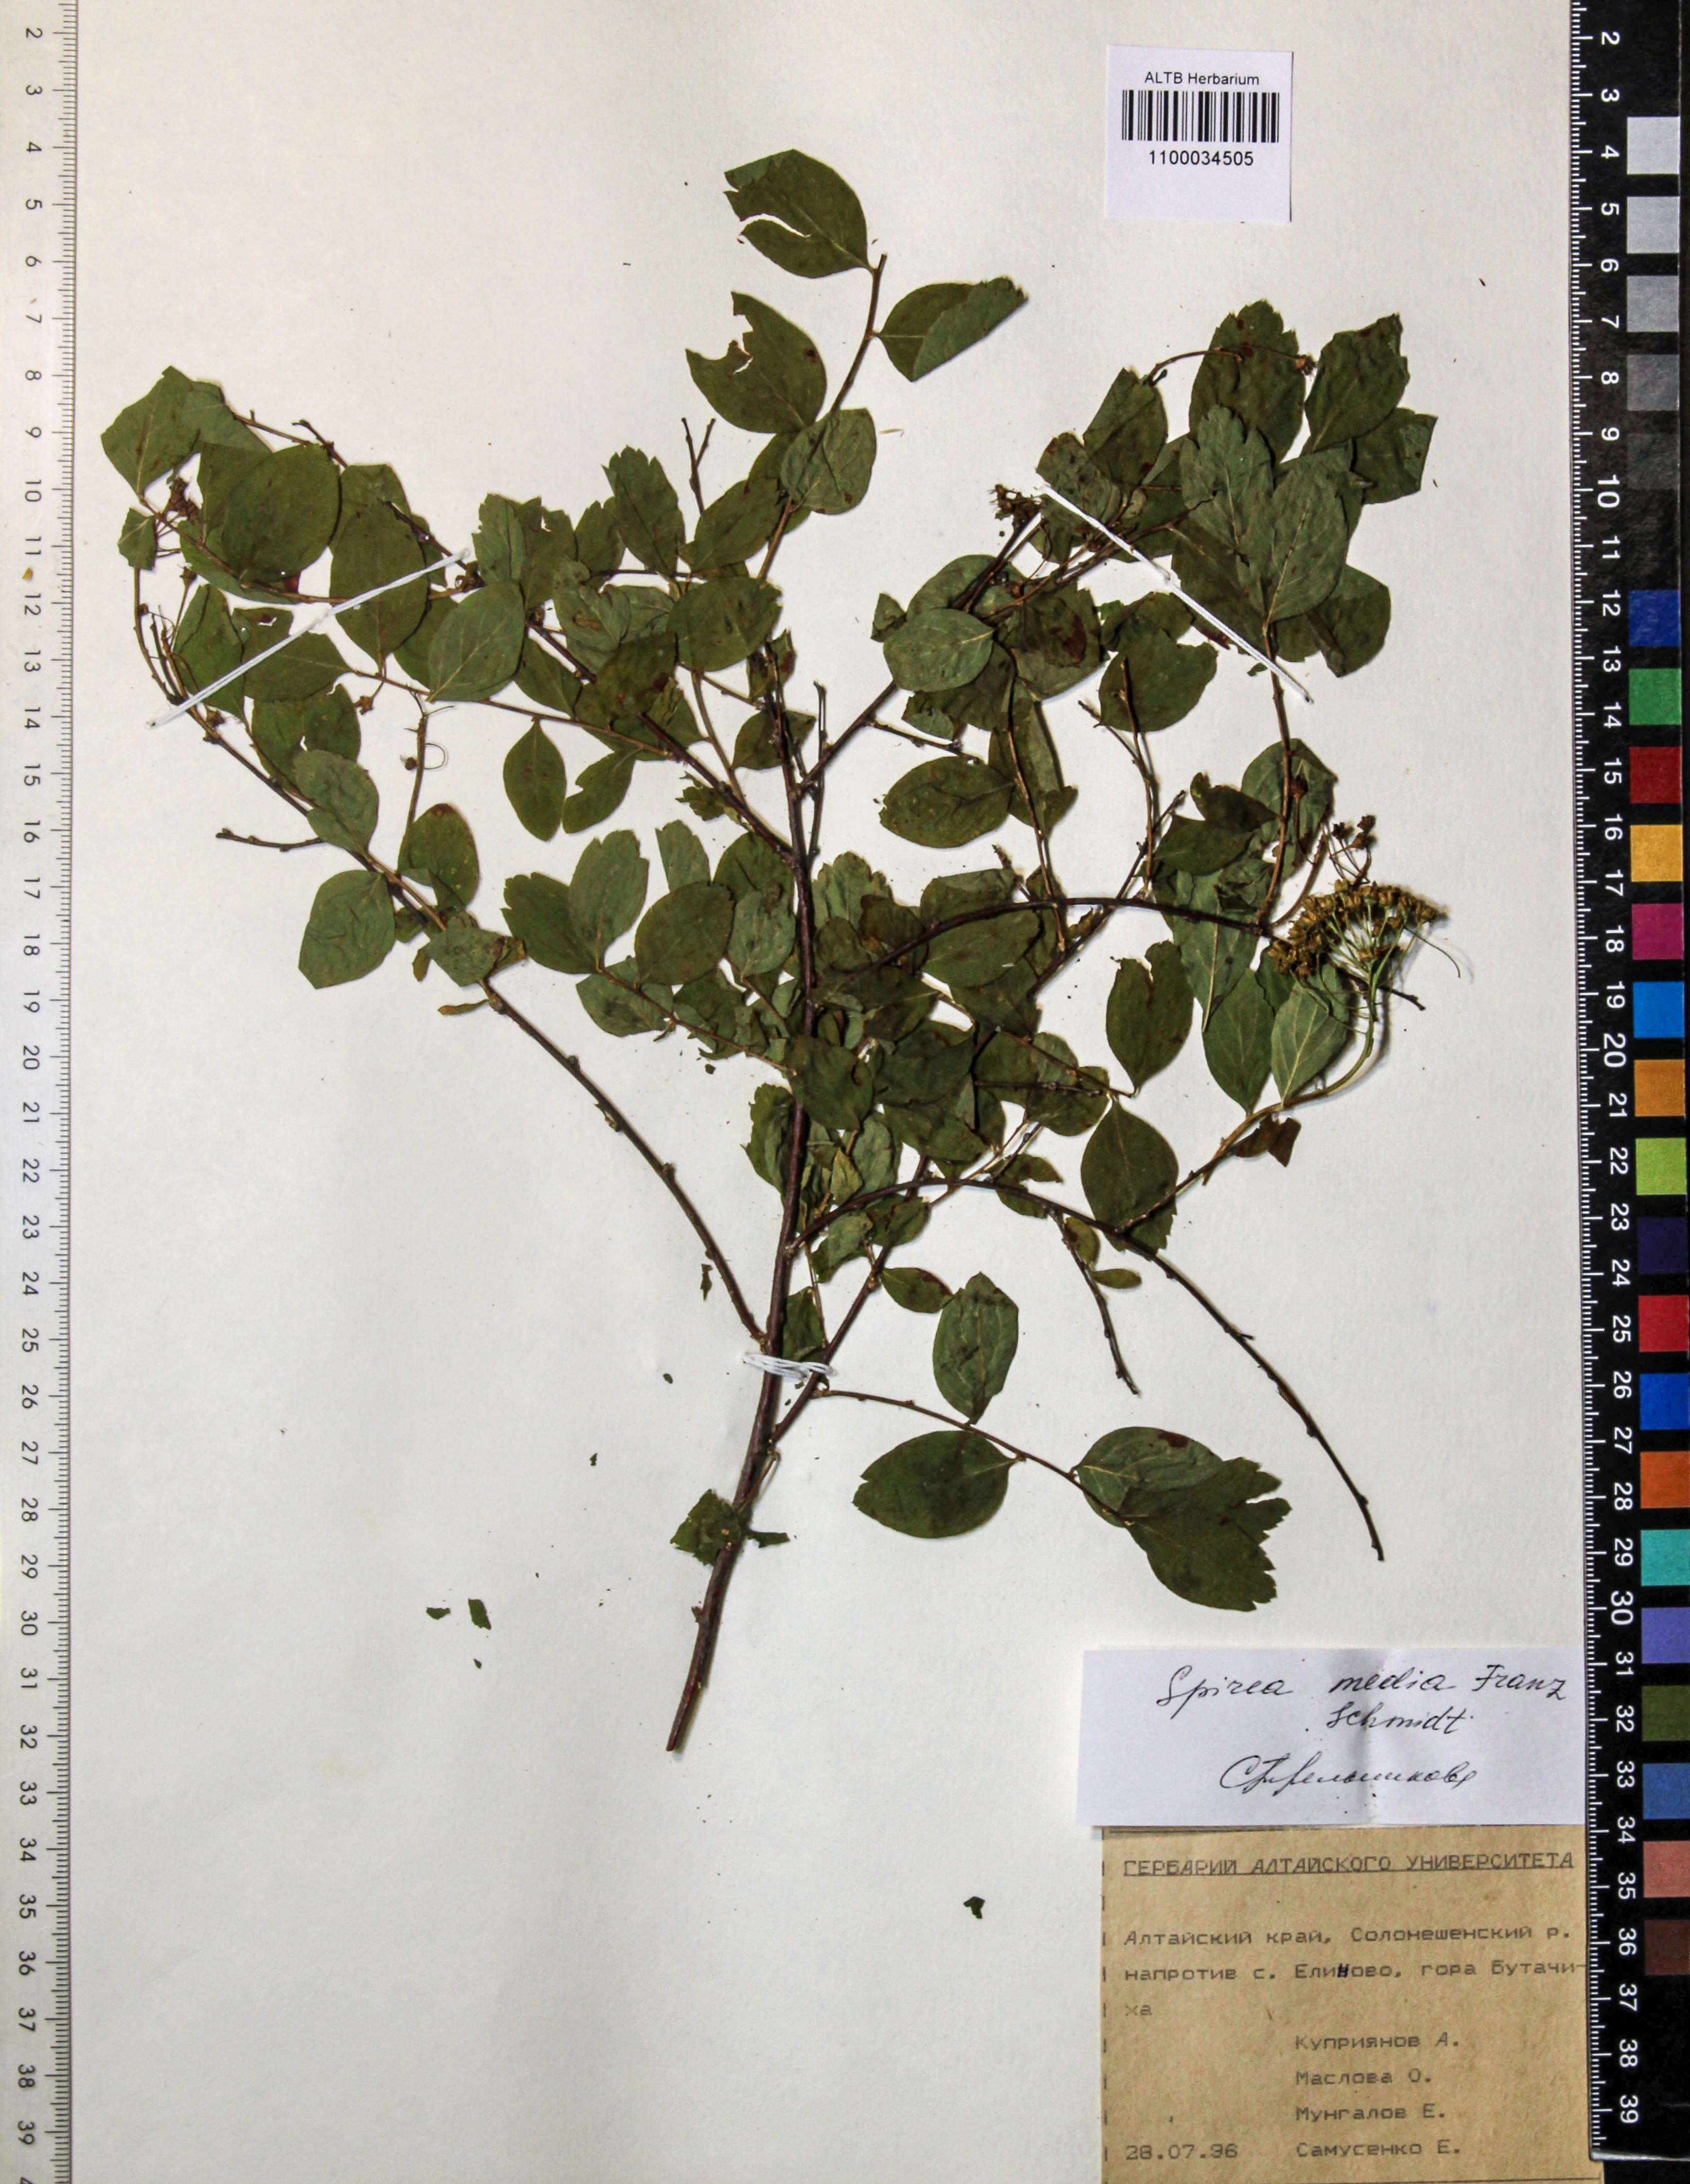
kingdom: Plantae
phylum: Tracheophyta
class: Magnoliopsida
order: Rosales
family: Rosaceae
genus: Spiraea
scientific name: Spiraea media
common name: Russian spiraea
